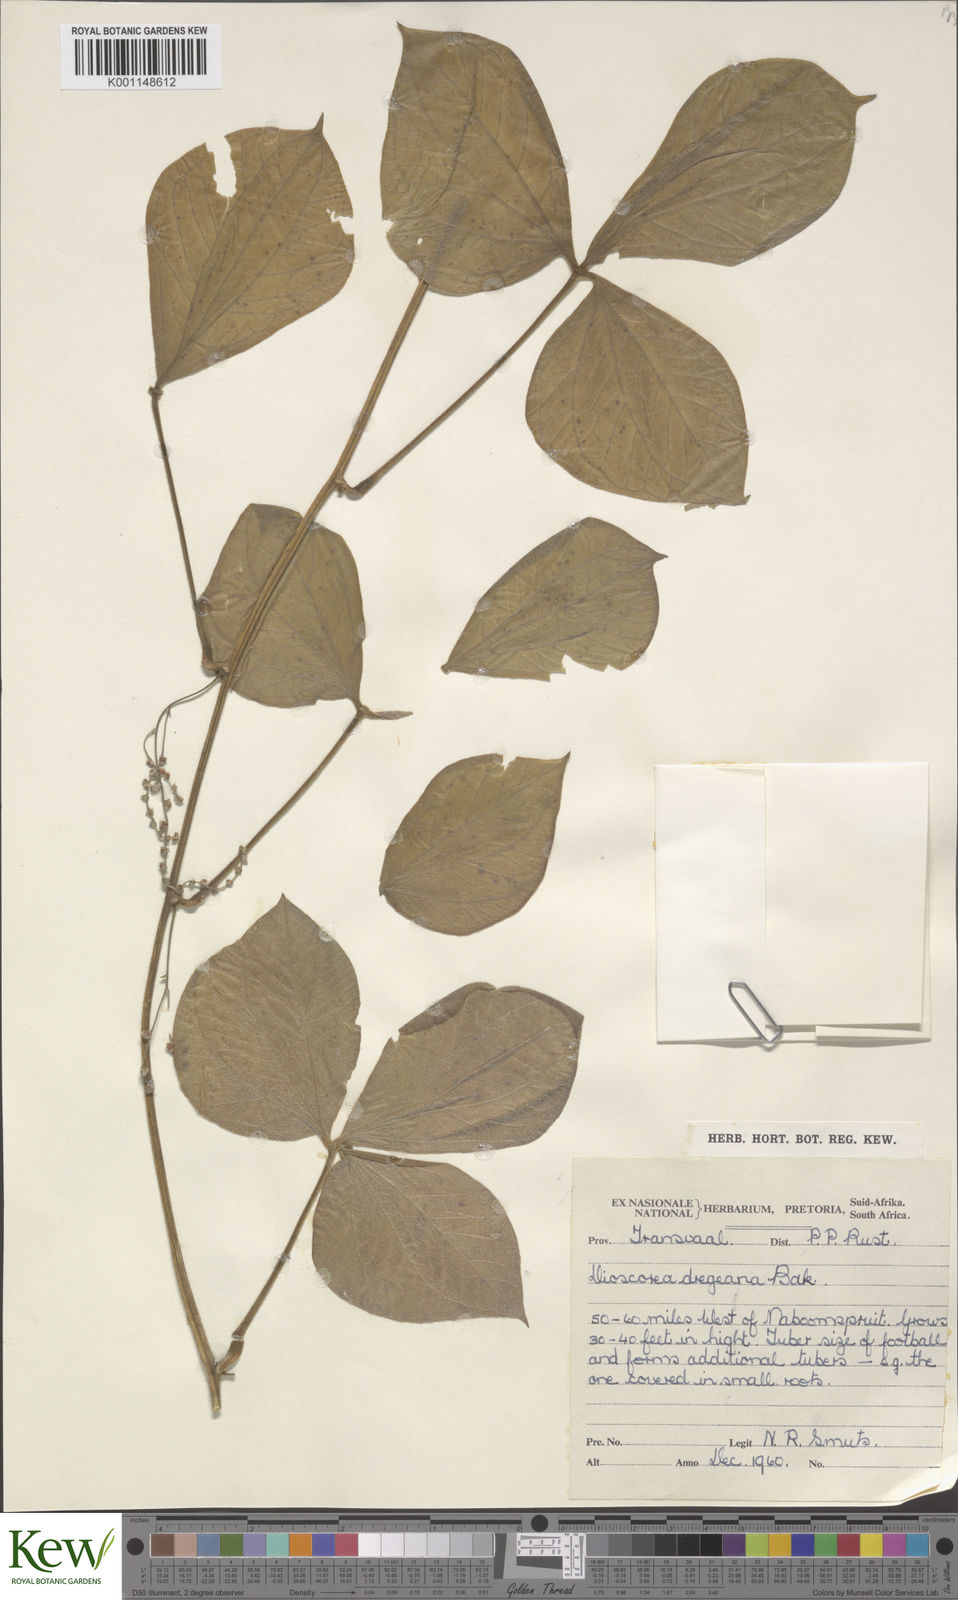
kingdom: Plantae
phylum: Tracheophyta
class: Liliopsida
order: Dioscoreales
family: Dioscoreaceae
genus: Dioscorea
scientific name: Dioscorea dregeana
